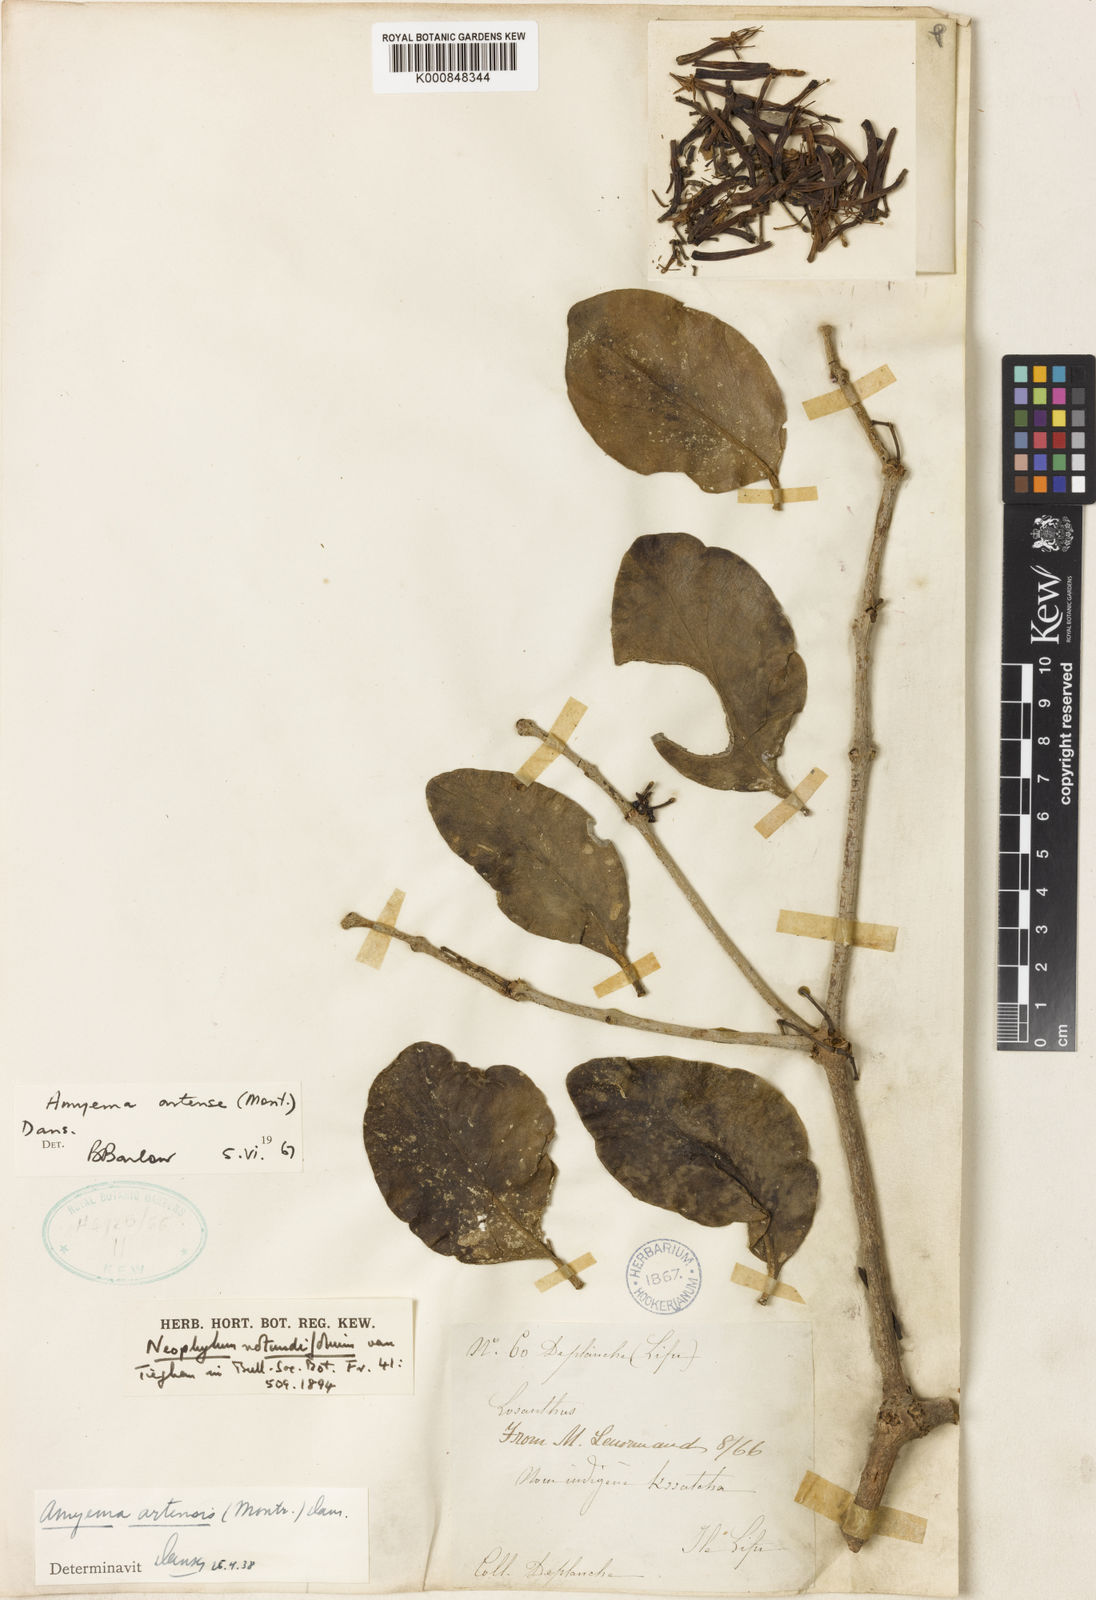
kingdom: Plantae
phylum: Tracheophyta
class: Magnoliopsida
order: Santalales
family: Loranthaceae
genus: Amyema
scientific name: Amyema scandens
